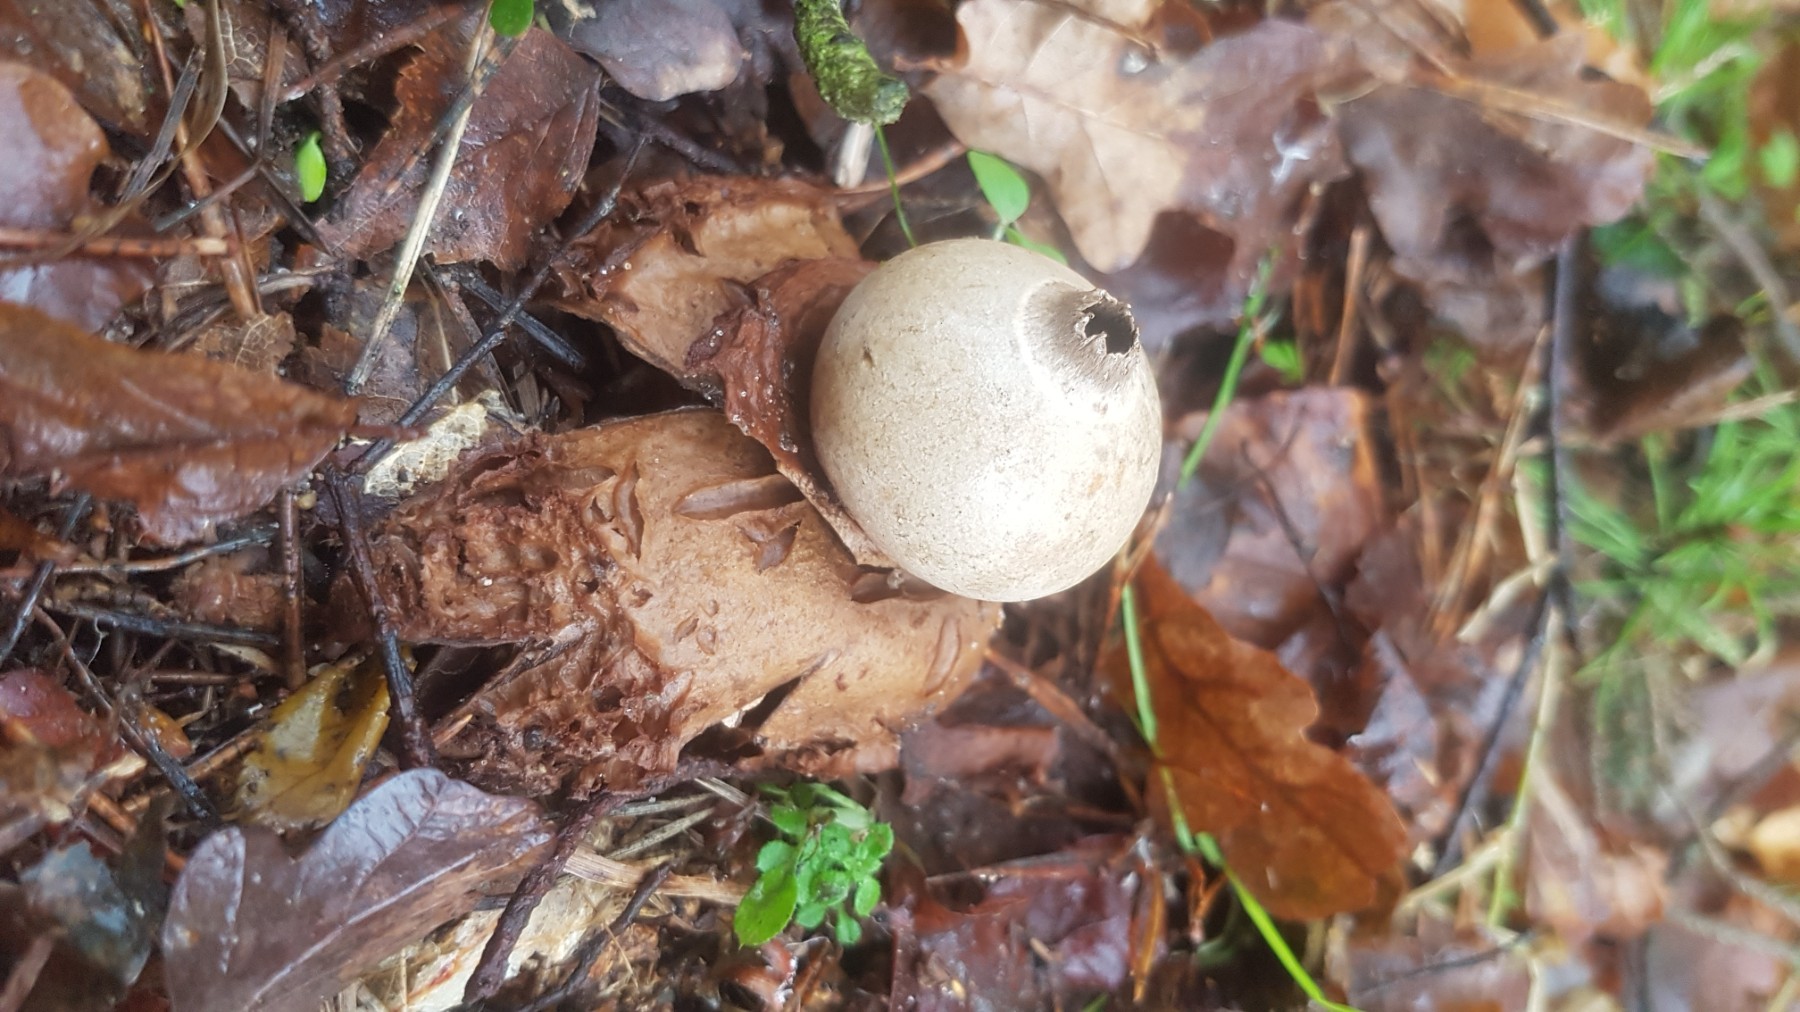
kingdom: Fungi
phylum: Basidiomycota
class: Agaricomycetes
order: Geastrales
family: Geastraceae
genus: Geastrum
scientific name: Geastrum michelianum
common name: kødet stjernebold
